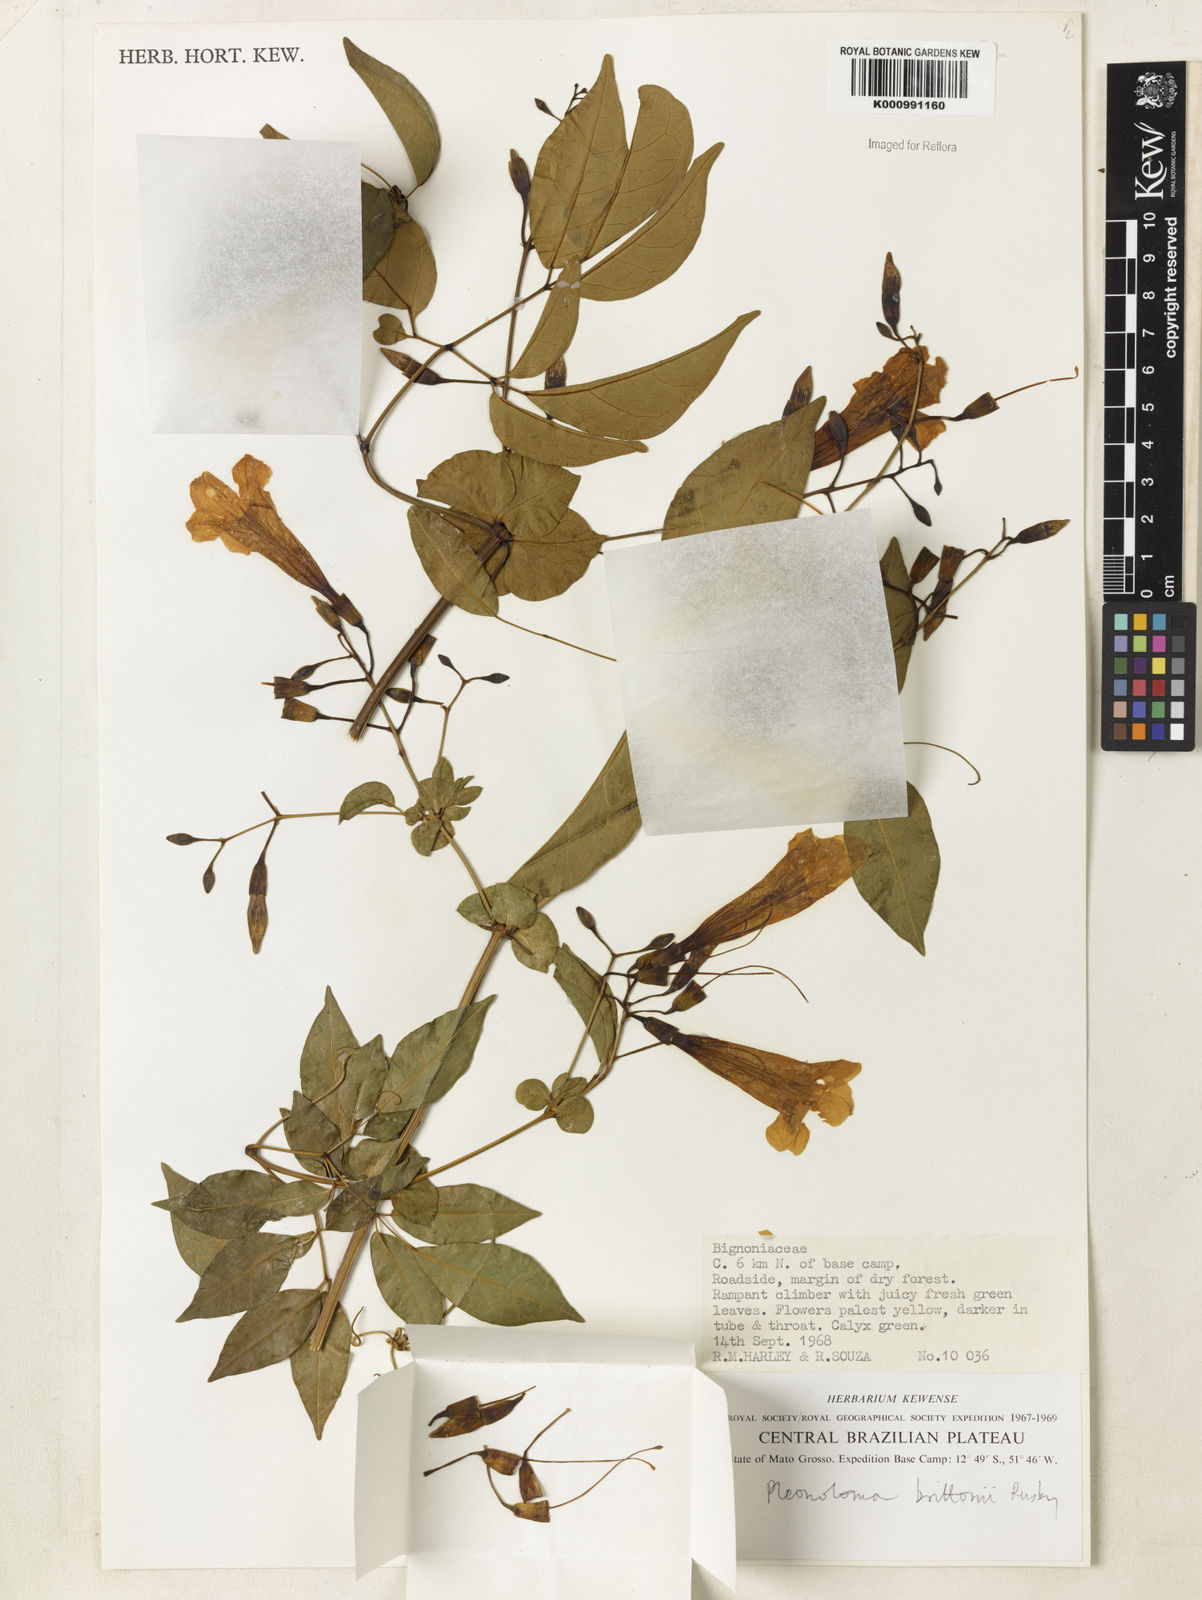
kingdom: Plantae
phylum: Tracheophyta
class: Magnoliopsida
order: Lamiales
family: Bignoniaceae
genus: Pleonotoma
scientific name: Pleonotoma jasminifolia
